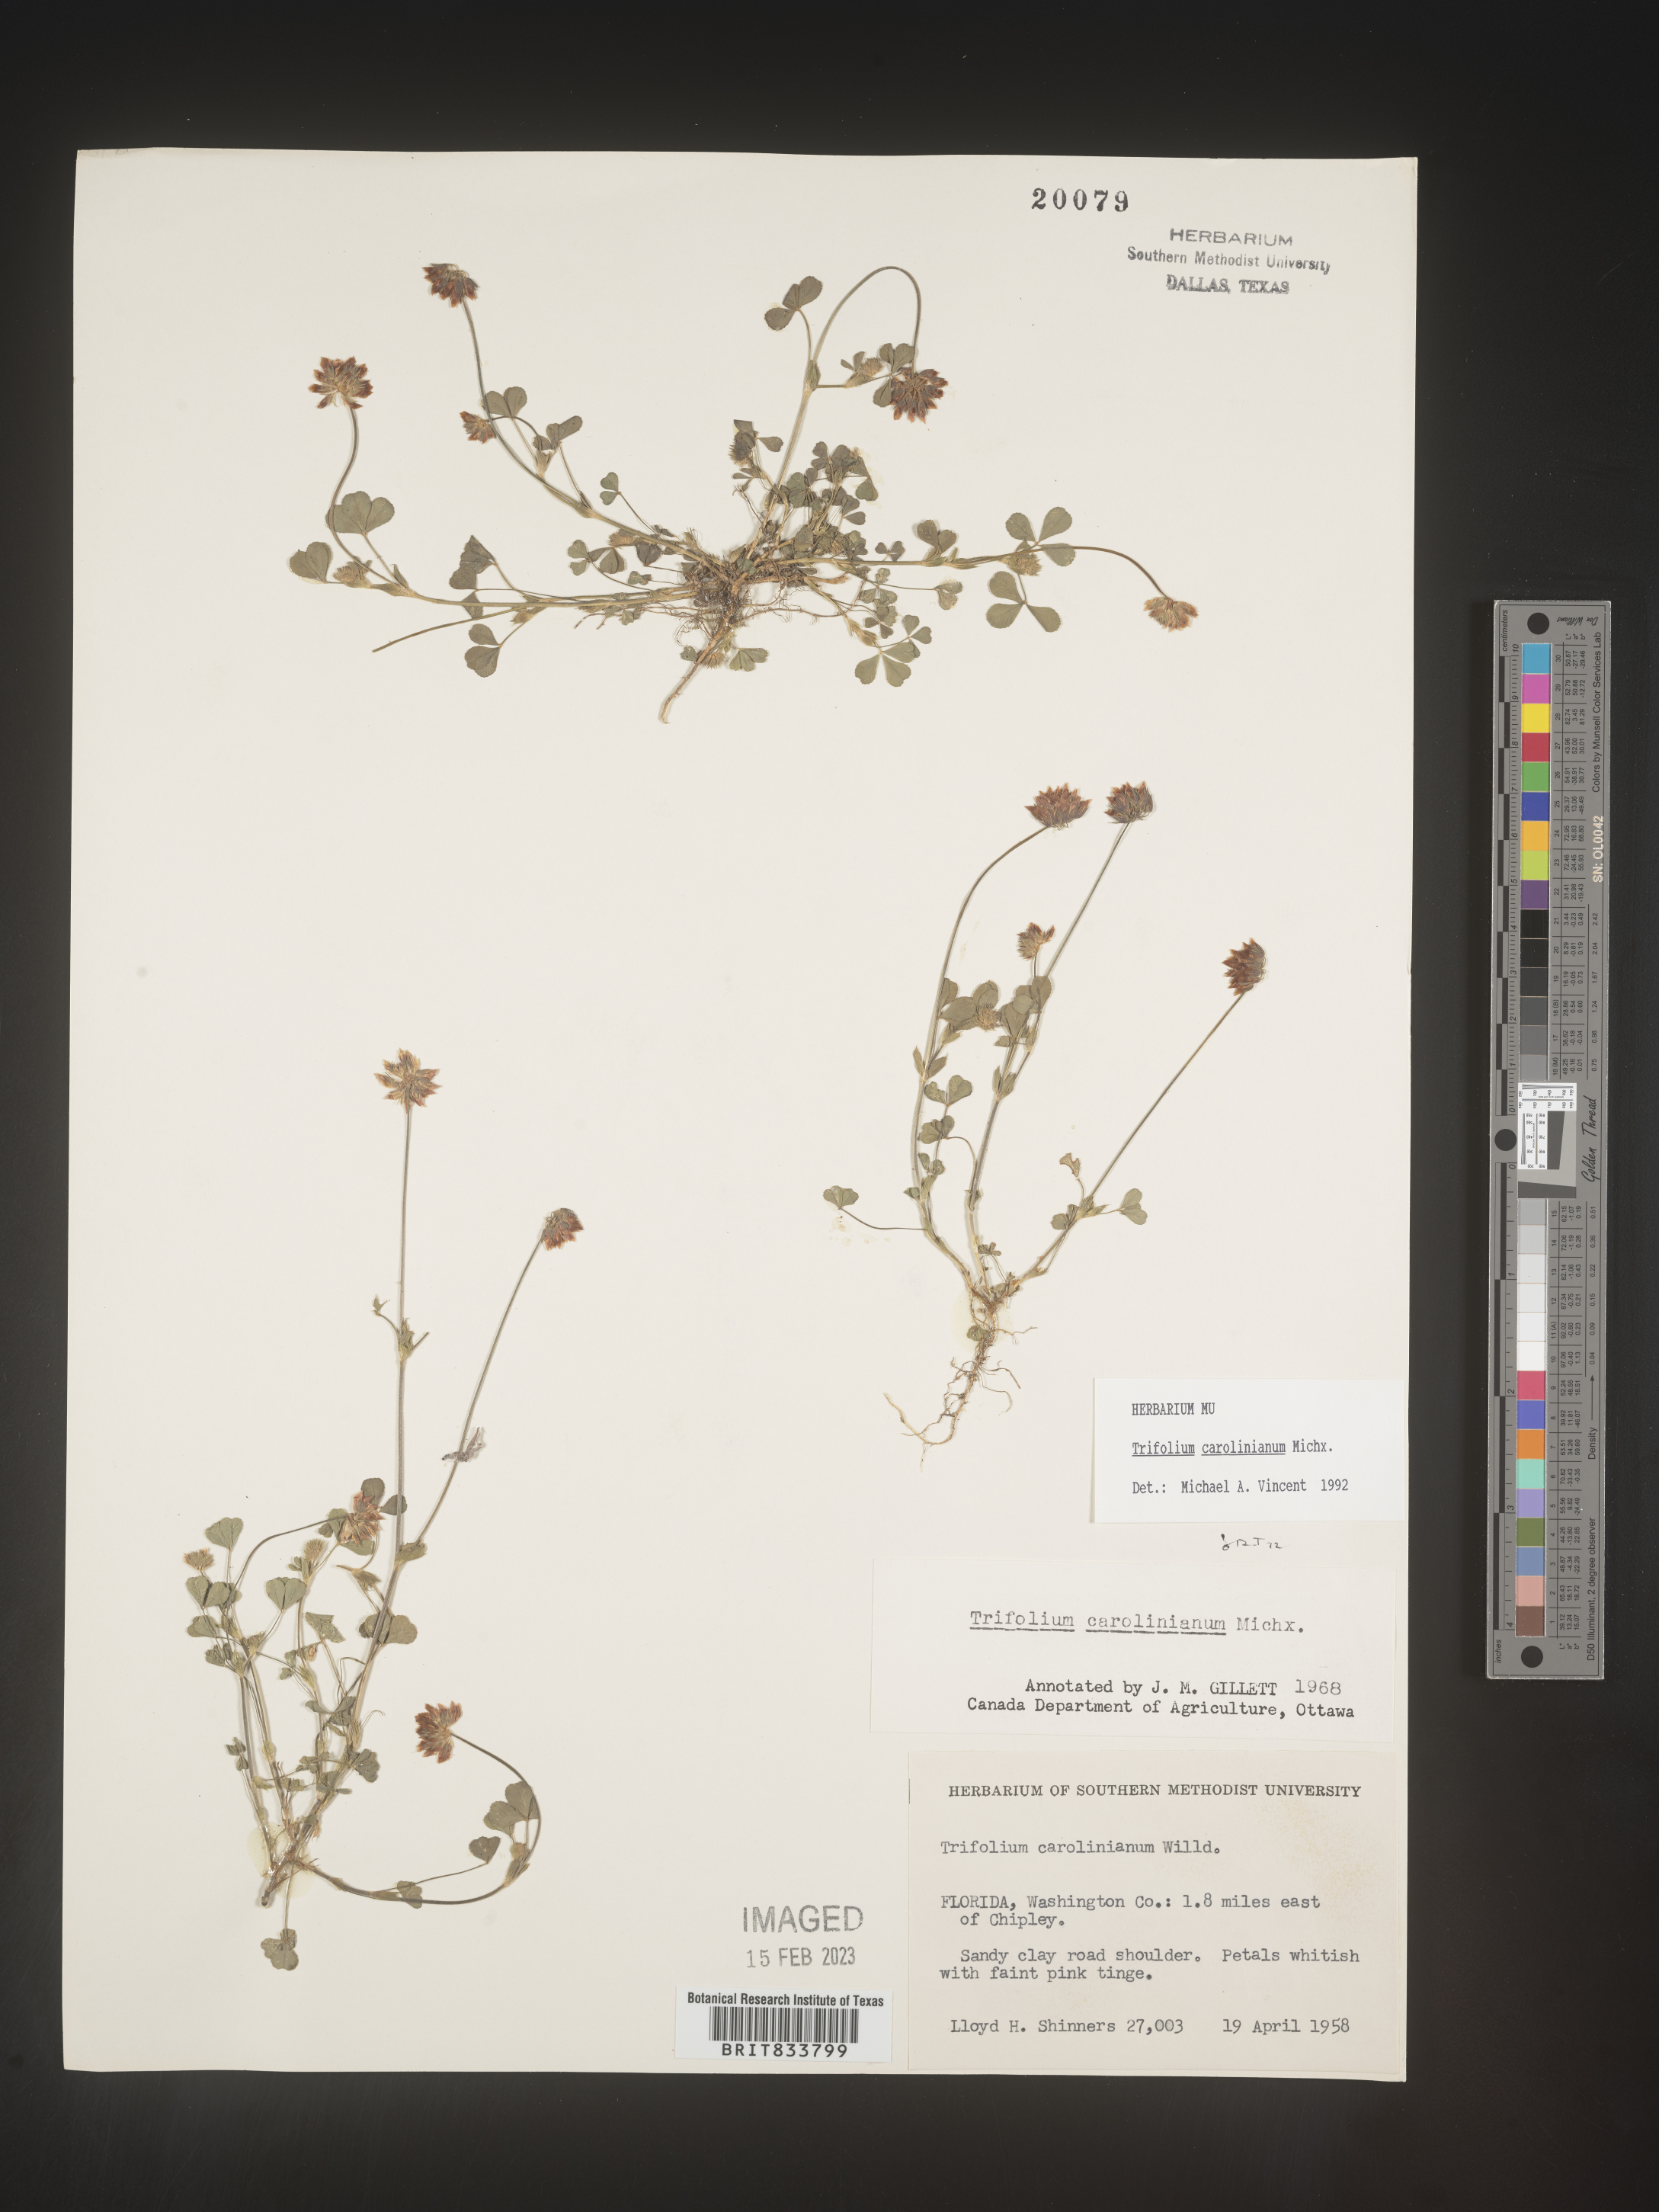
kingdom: Plantae
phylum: Tracheophyta
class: Magnoliopsida
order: Fabales
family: Fabaceae
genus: Trifolium
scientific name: Trifolium carolinianum
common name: Wild white clover
